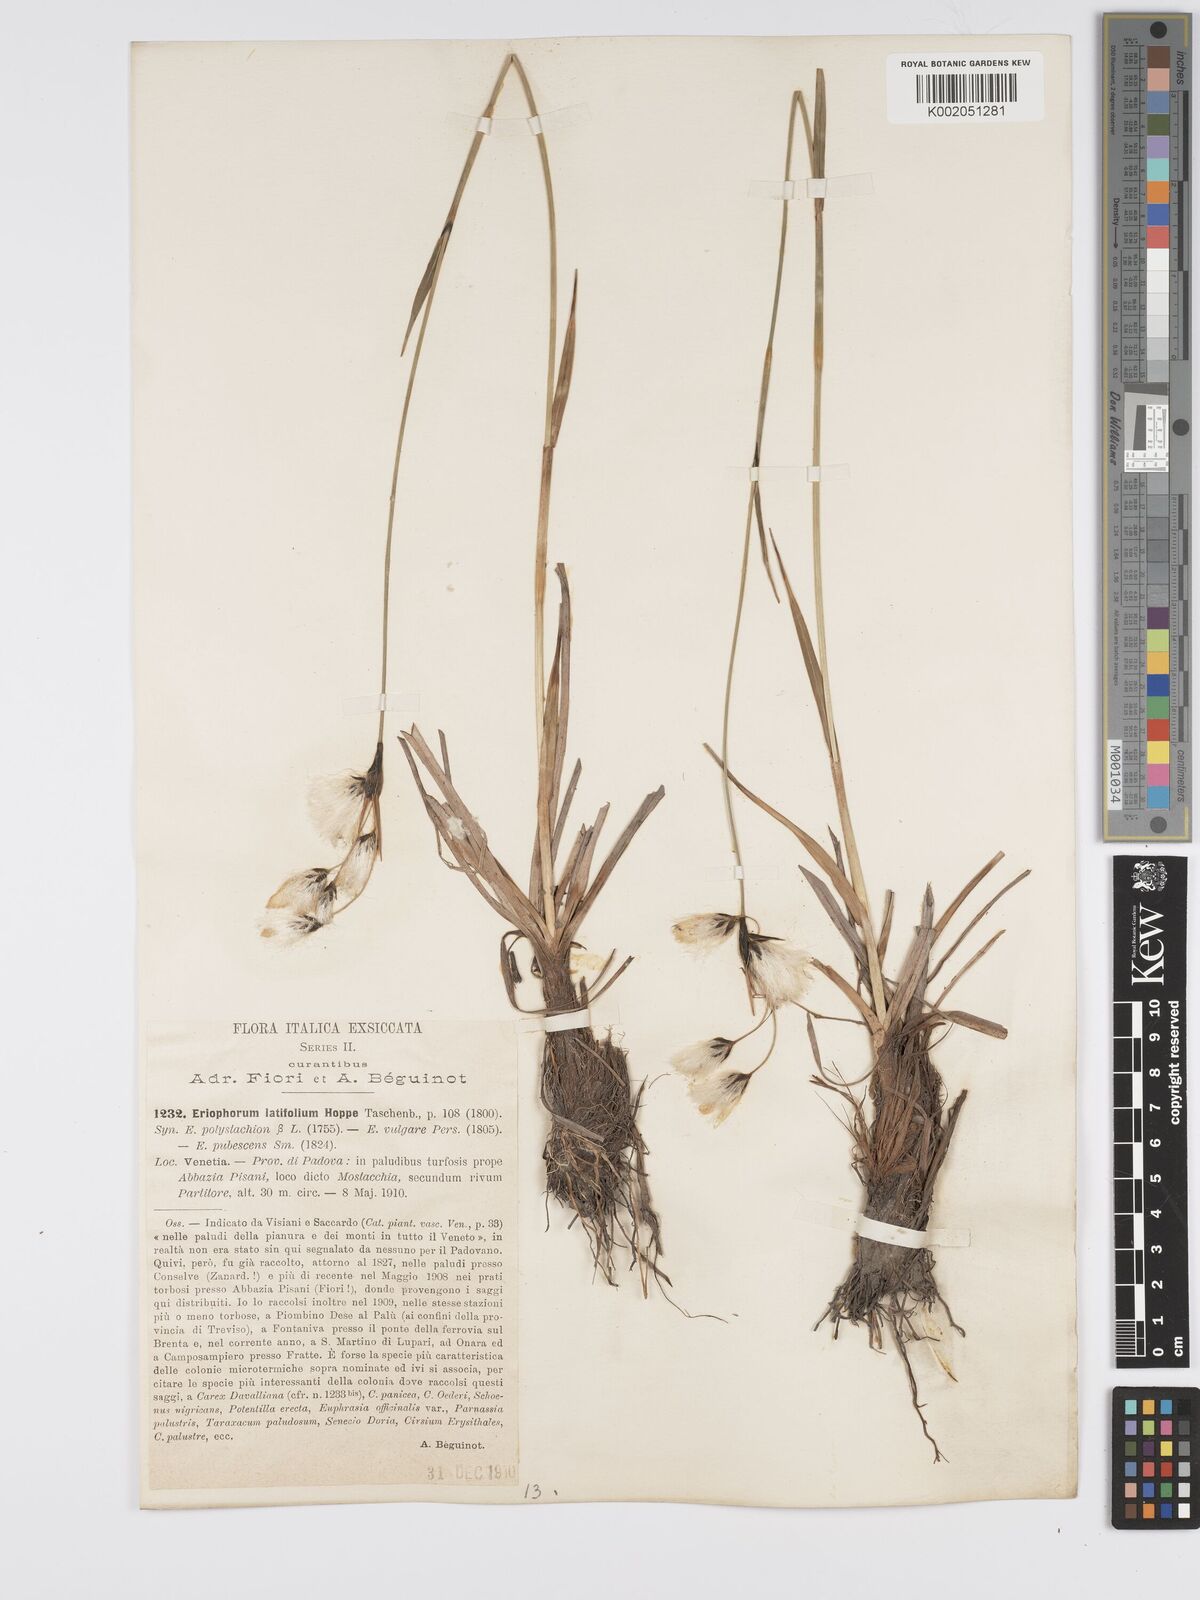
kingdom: Plantae
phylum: Tracheophyta
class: Liliopsida
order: Poales
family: Cyperaceae
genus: Eriophorum
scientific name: Eriophorum latifolium
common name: Broad-leaved cottongrass
